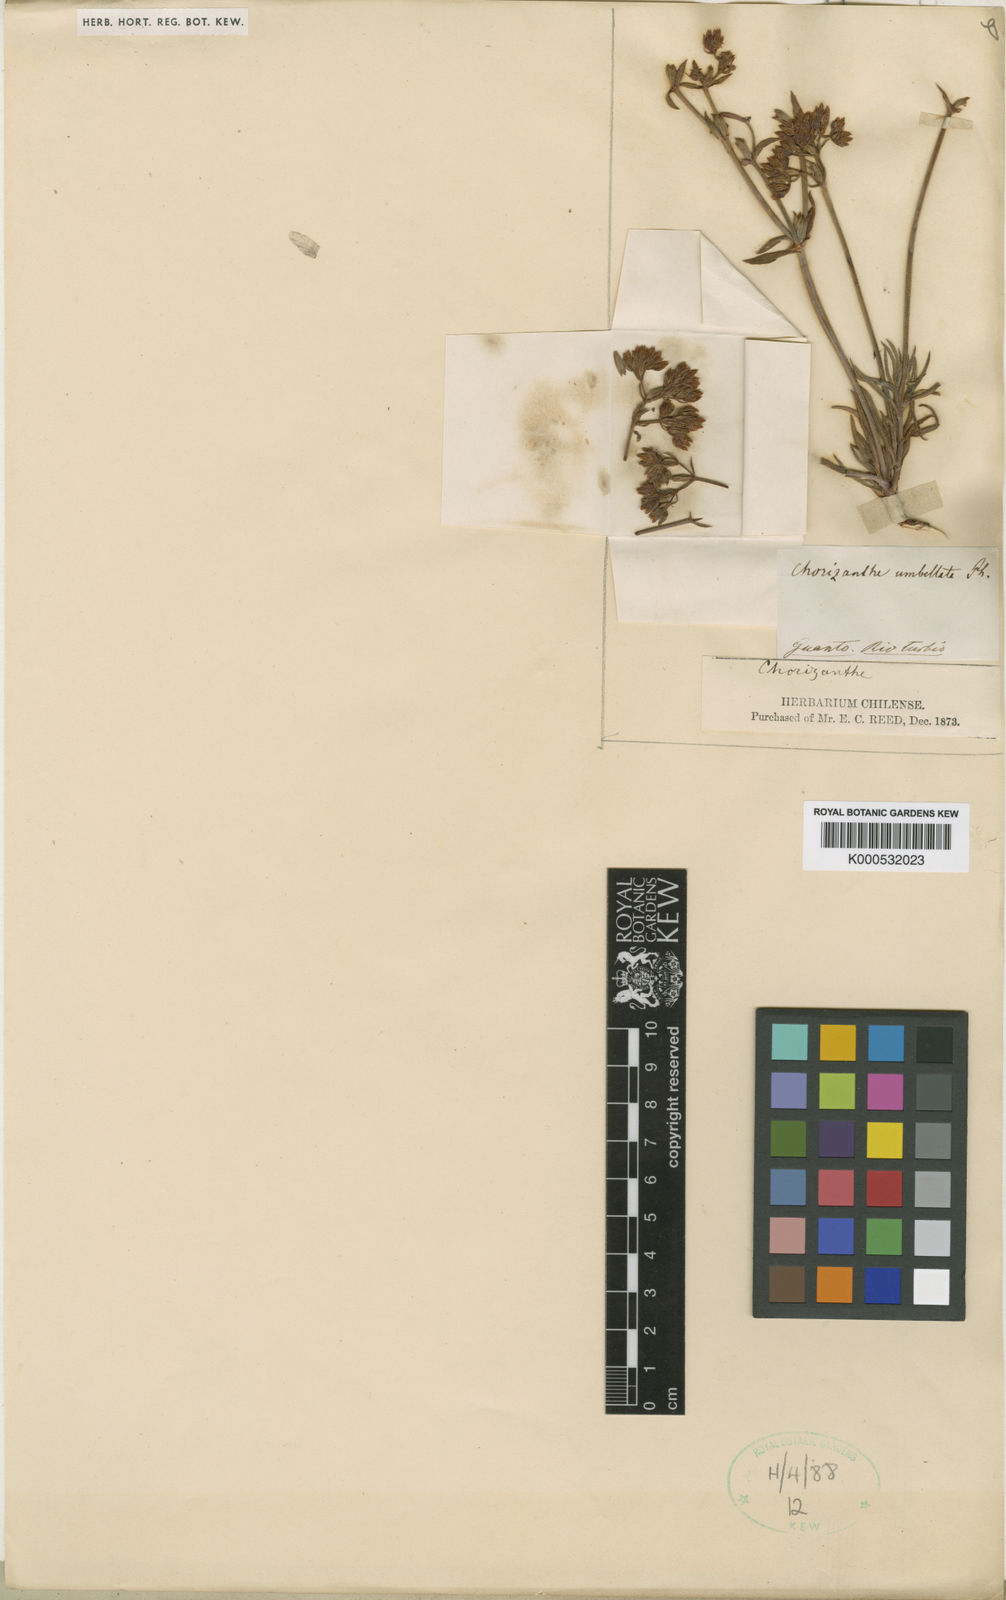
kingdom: Plantae
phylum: Tracheophyta
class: Magnoliopsida
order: Caryophyllales
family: Polygonaceae
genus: Chorizanthe
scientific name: Chorizanthe peduncularis
